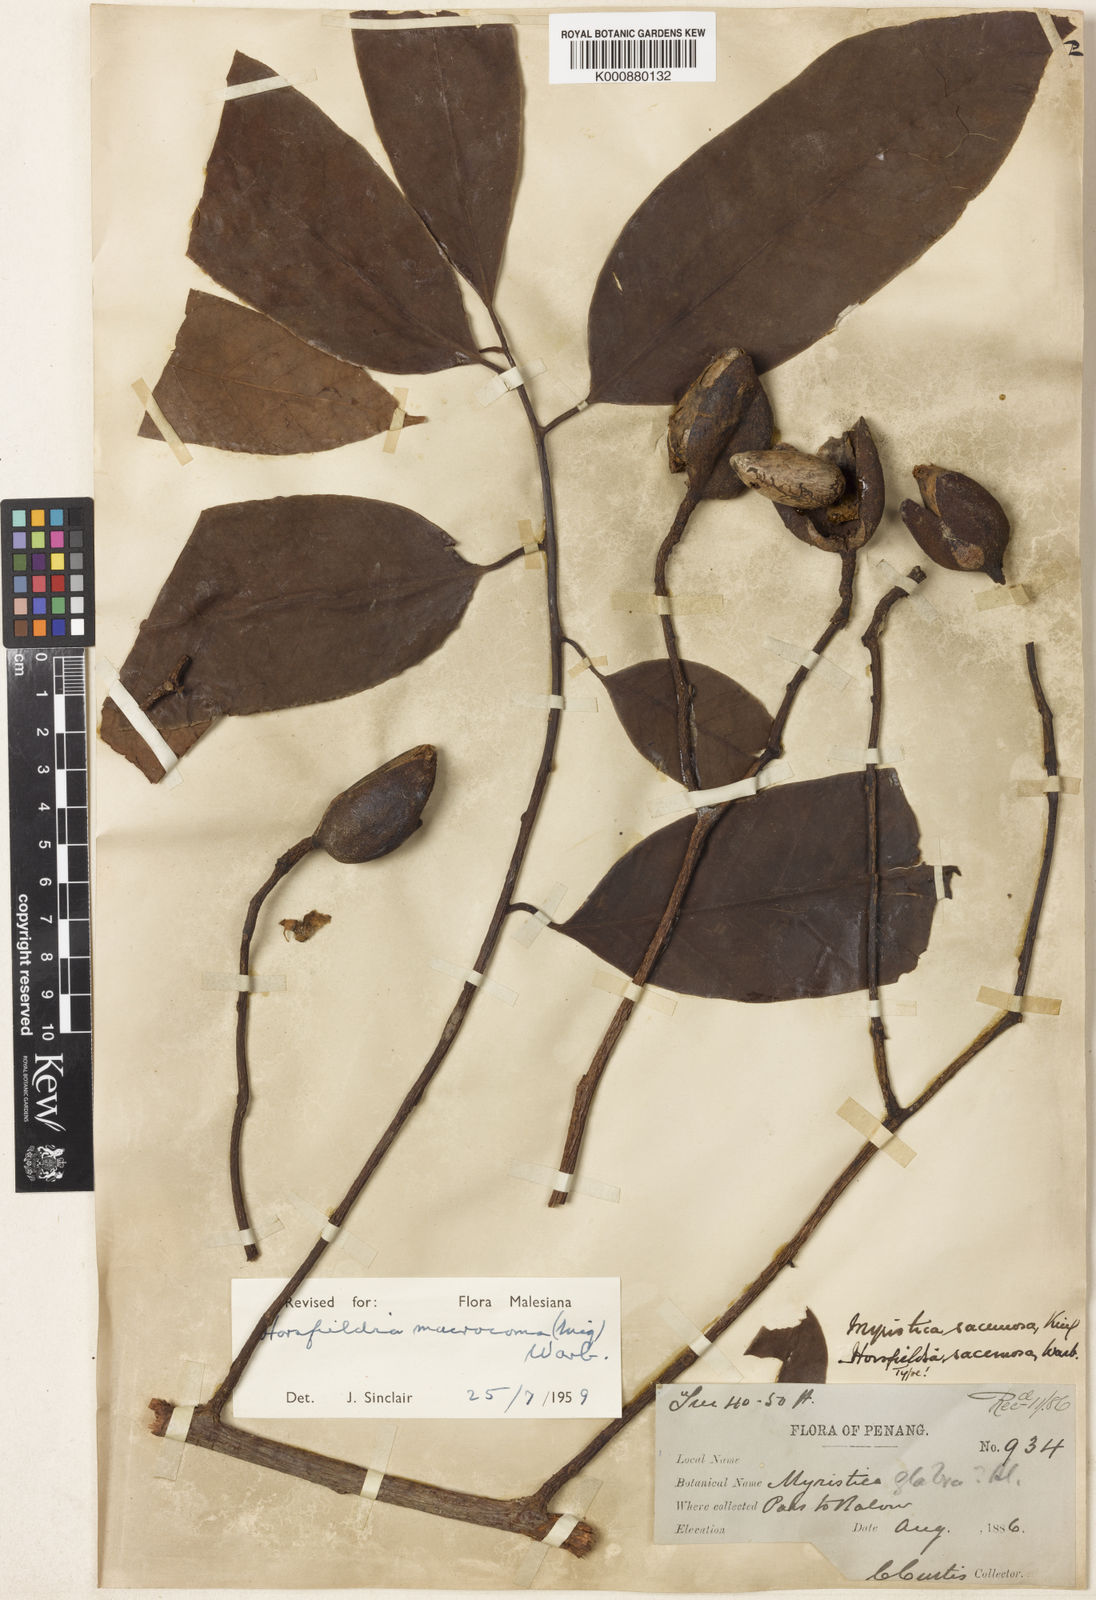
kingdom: Plantae
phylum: Tracheophyta
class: Magnoliopsida
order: Magnoliales
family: Myristicaceae
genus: Endocomia
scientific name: Endocomia canarioides
